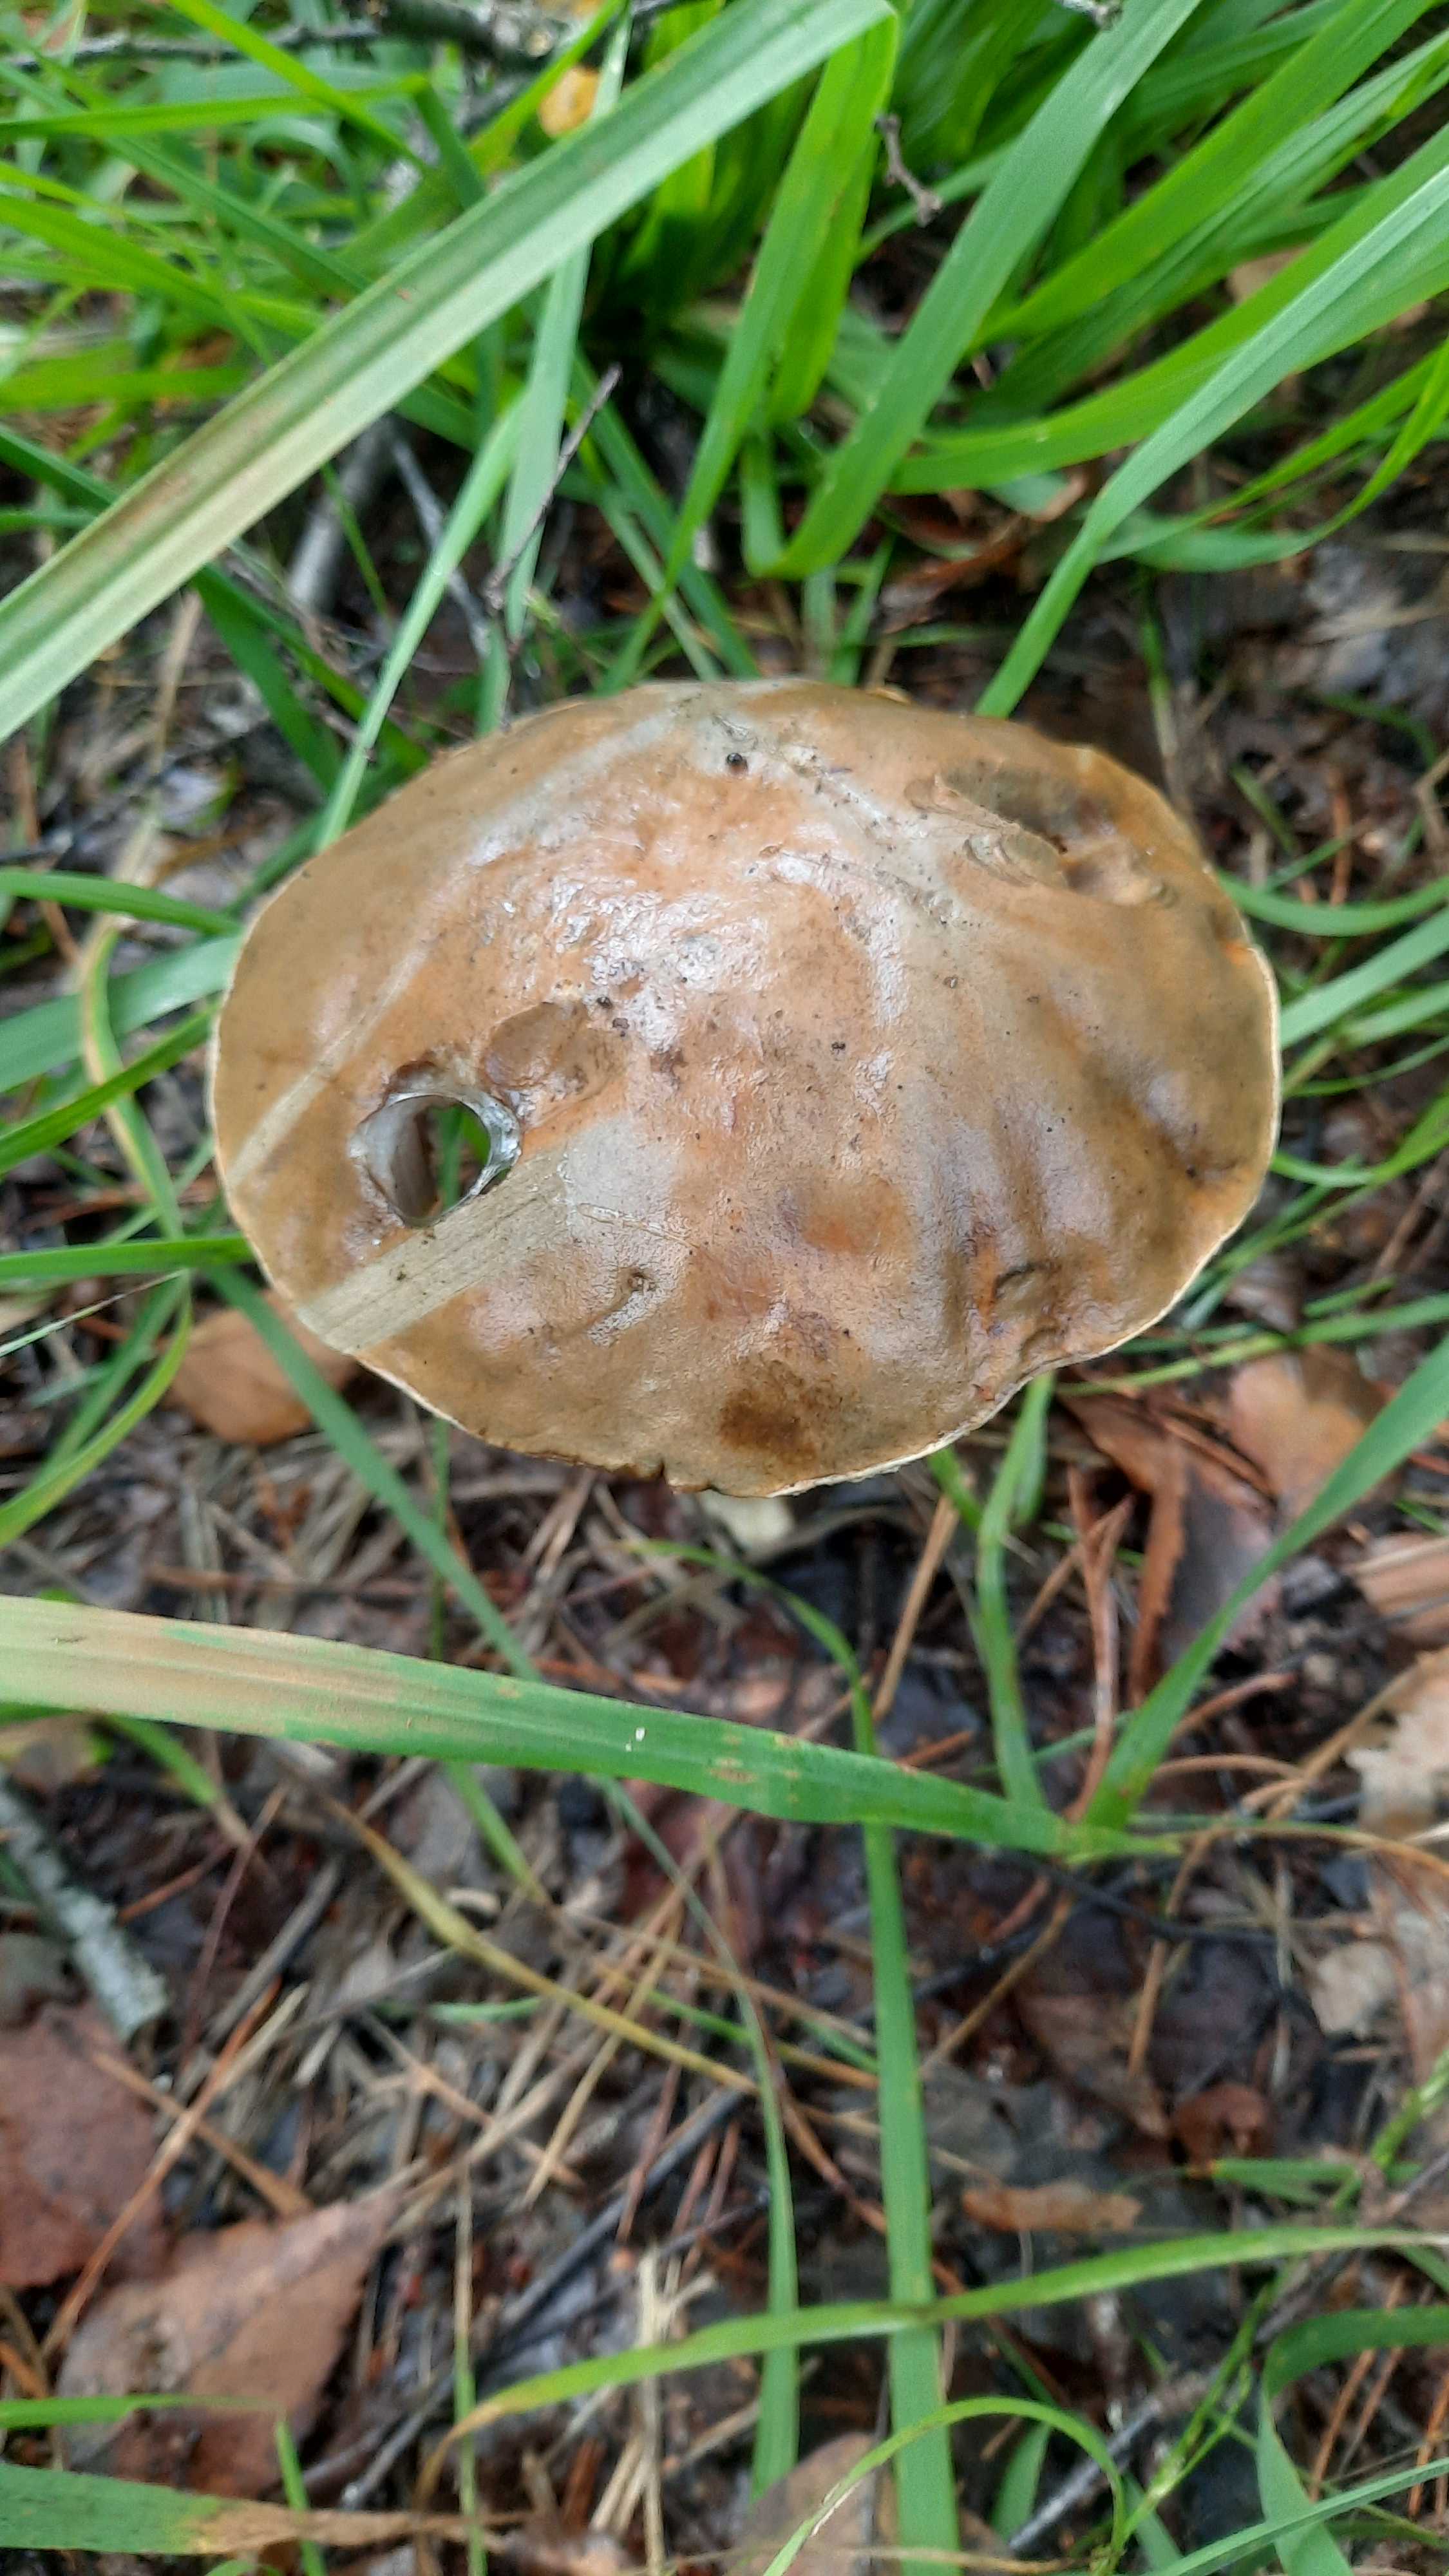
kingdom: Fungi
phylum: Basidiomycota
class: Agaricomycetes
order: Boletales
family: Boletaceae
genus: Leccinum
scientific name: Leccinum
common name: skælrørhat
